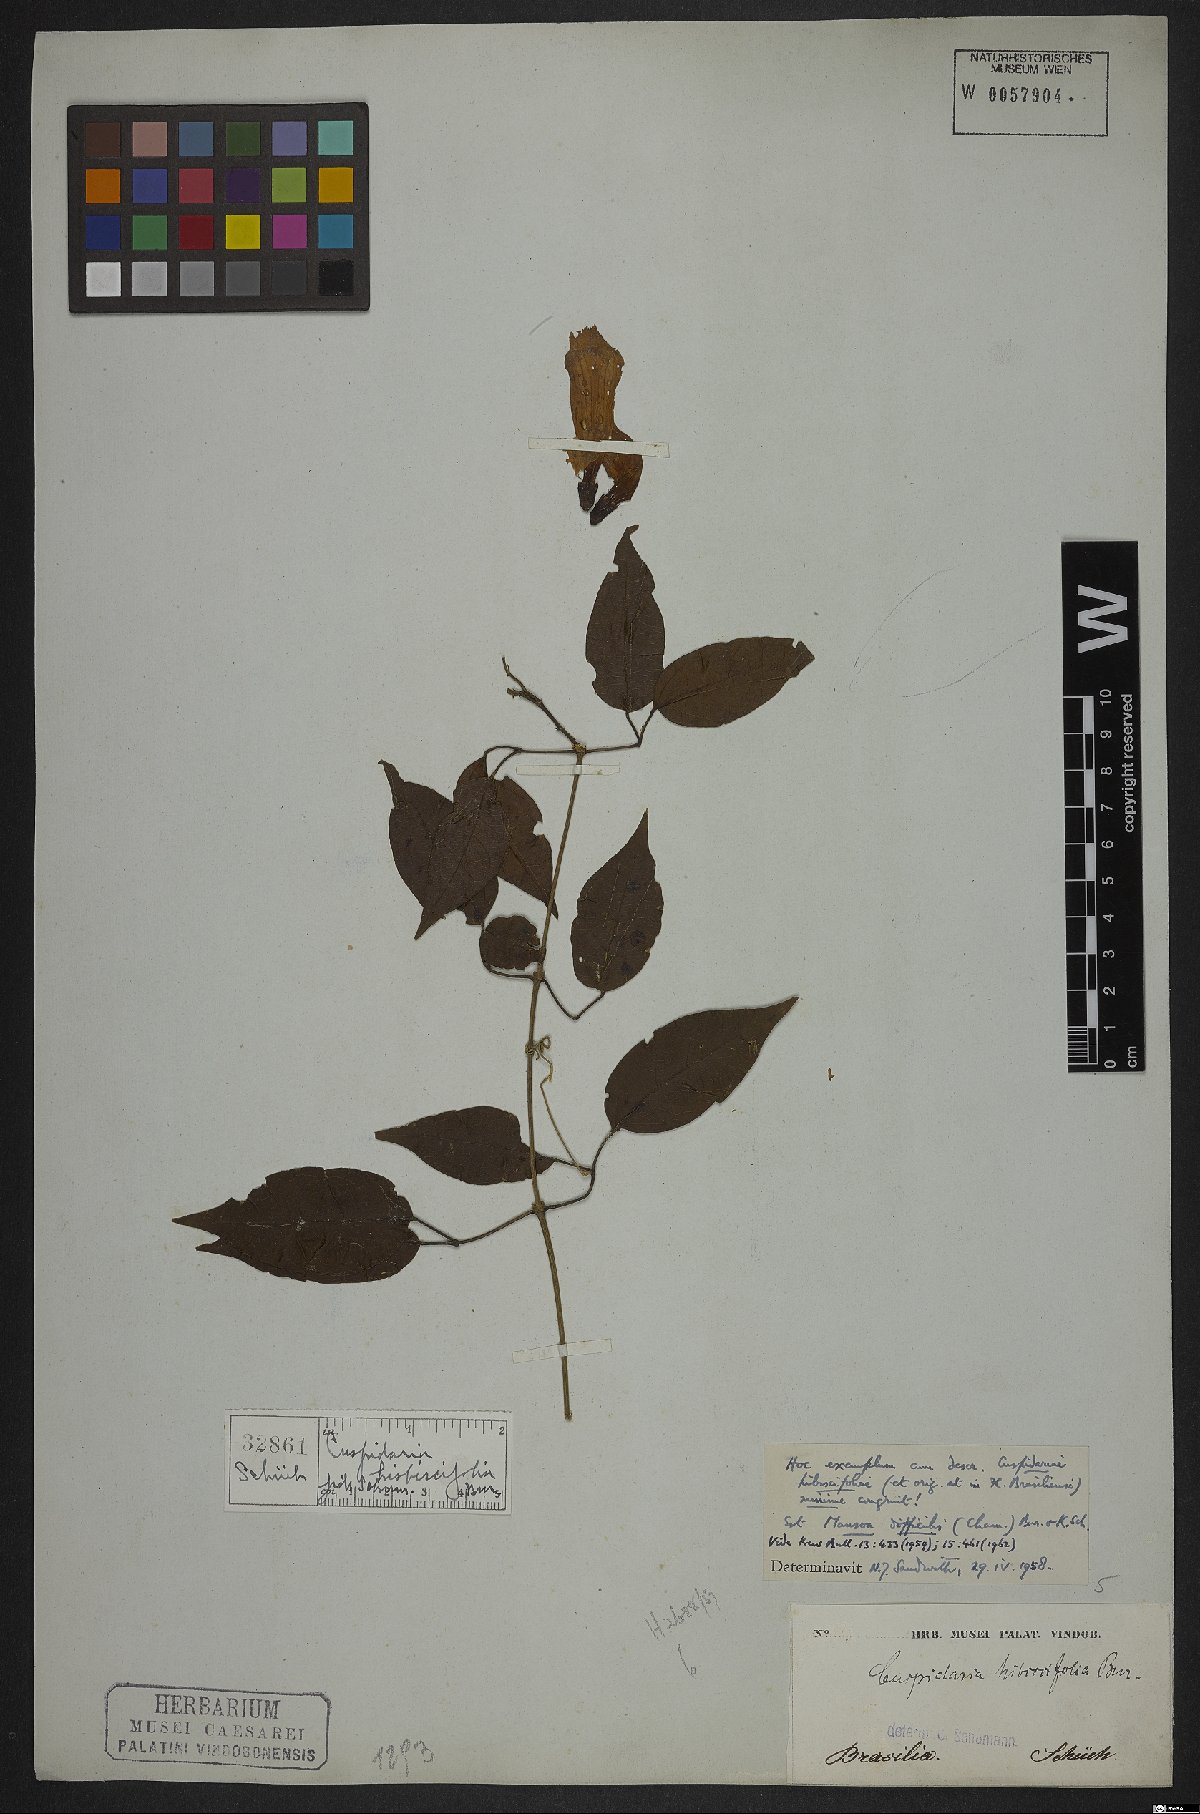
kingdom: Plantae
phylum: Tracheophyta
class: Magnoliopsida
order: Lamiales
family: Bignoniaceae
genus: Tanaecium
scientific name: Tanaecium dichotomum
